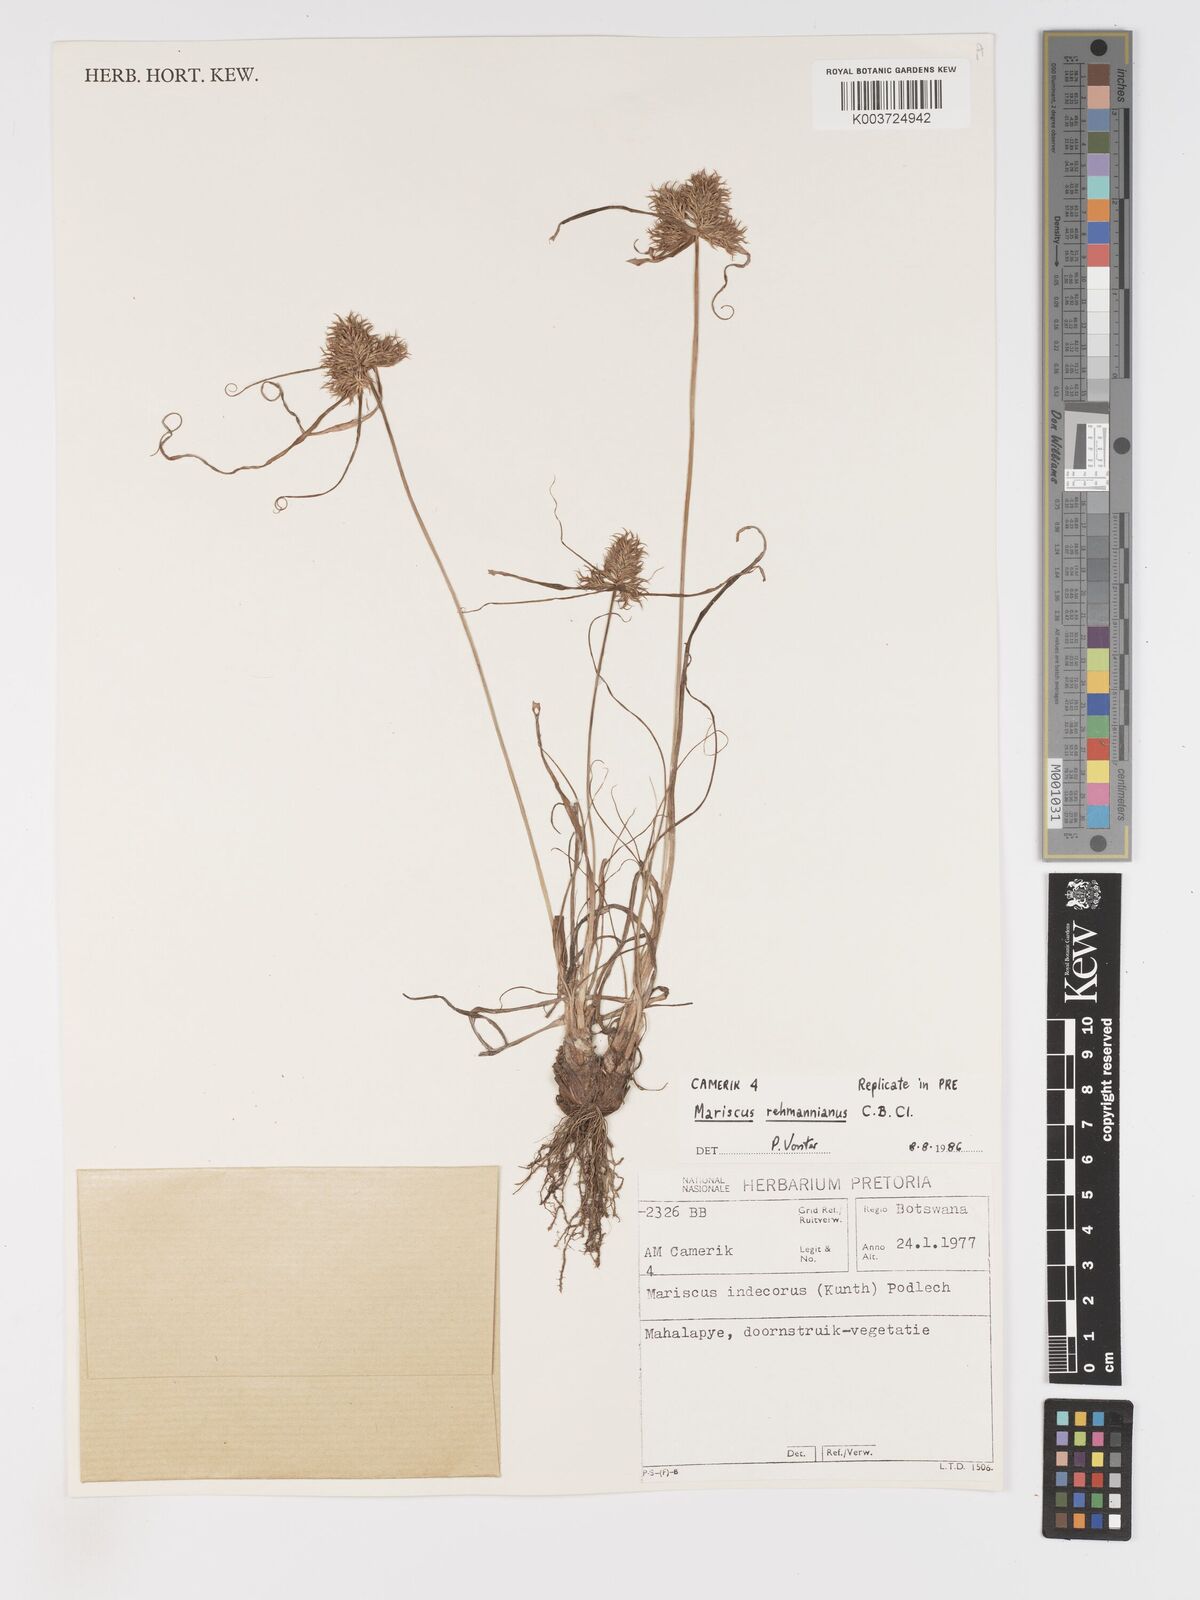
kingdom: Plantae
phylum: Tracheophyta
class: Liliopsida
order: Poales
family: Cyperaceae
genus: Cyperus
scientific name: Cyperus indecorus
